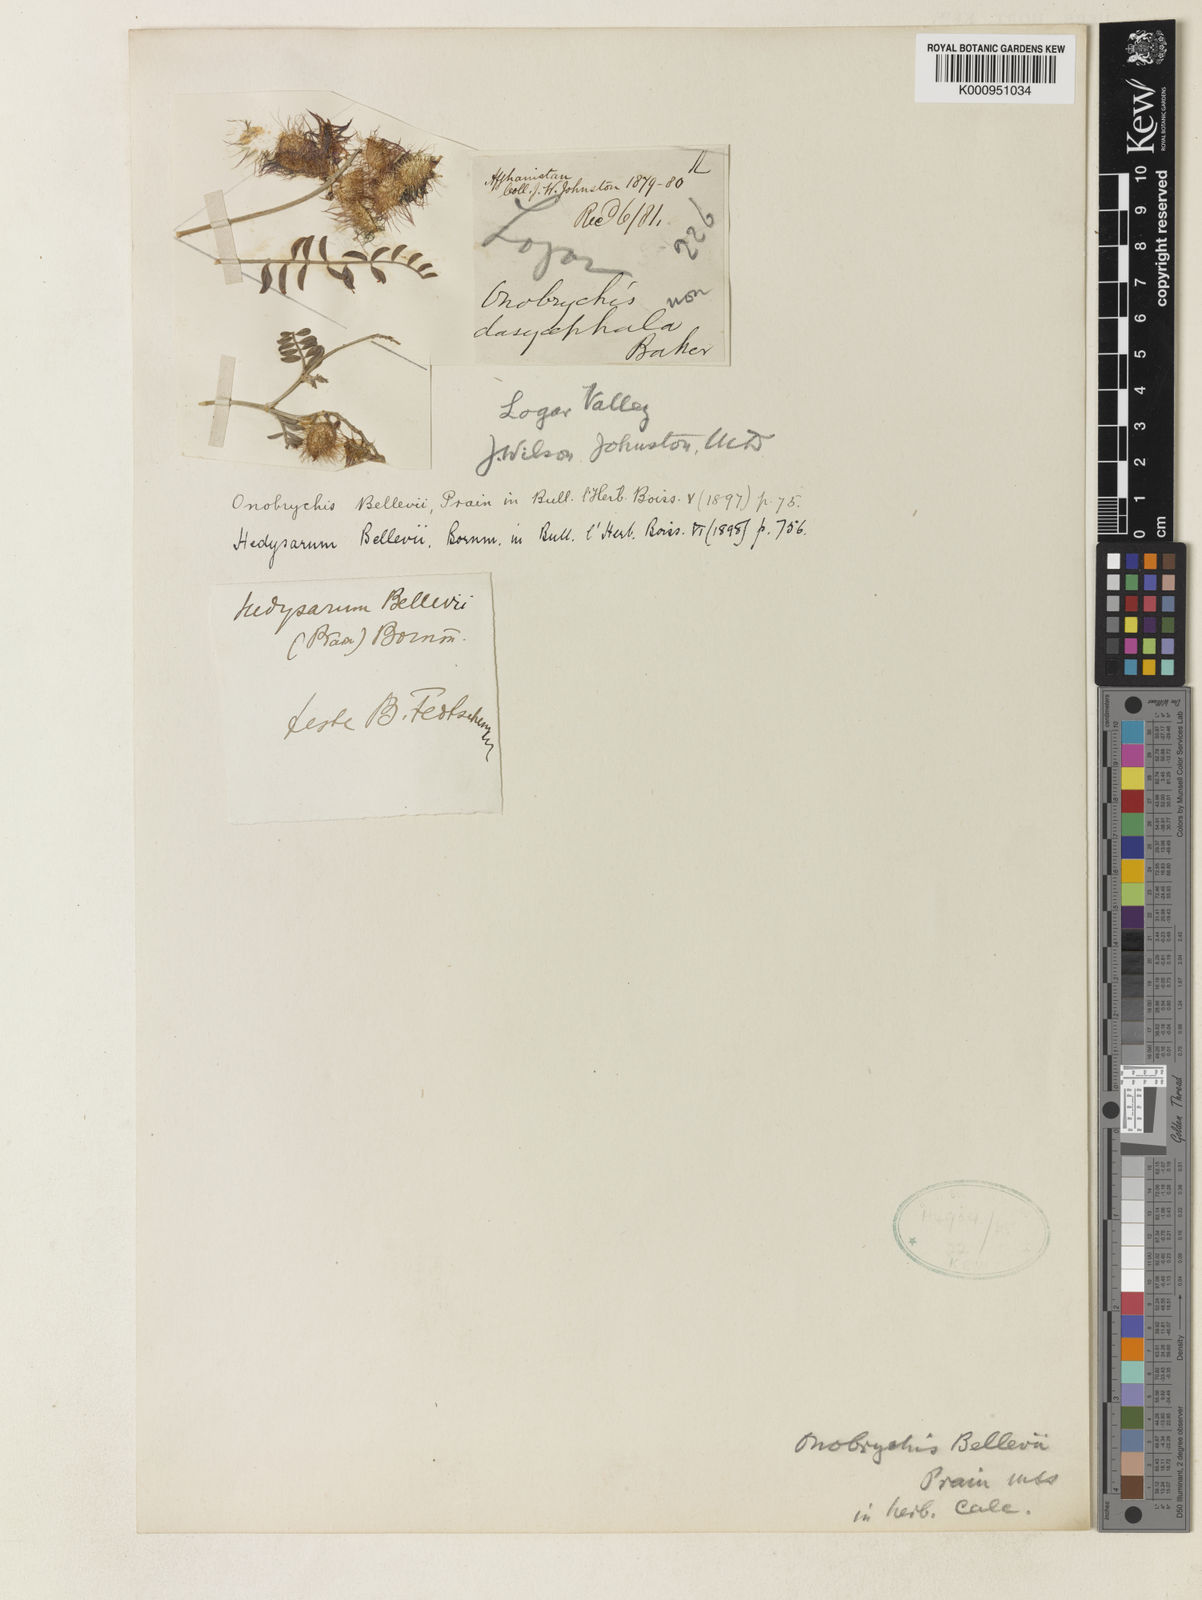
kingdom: Plantae
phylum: Tracheophyta
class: Magnoliopsida
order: Fabales
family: Fabaceae
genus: Hedysarum
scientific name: Hedysarum bellevii
